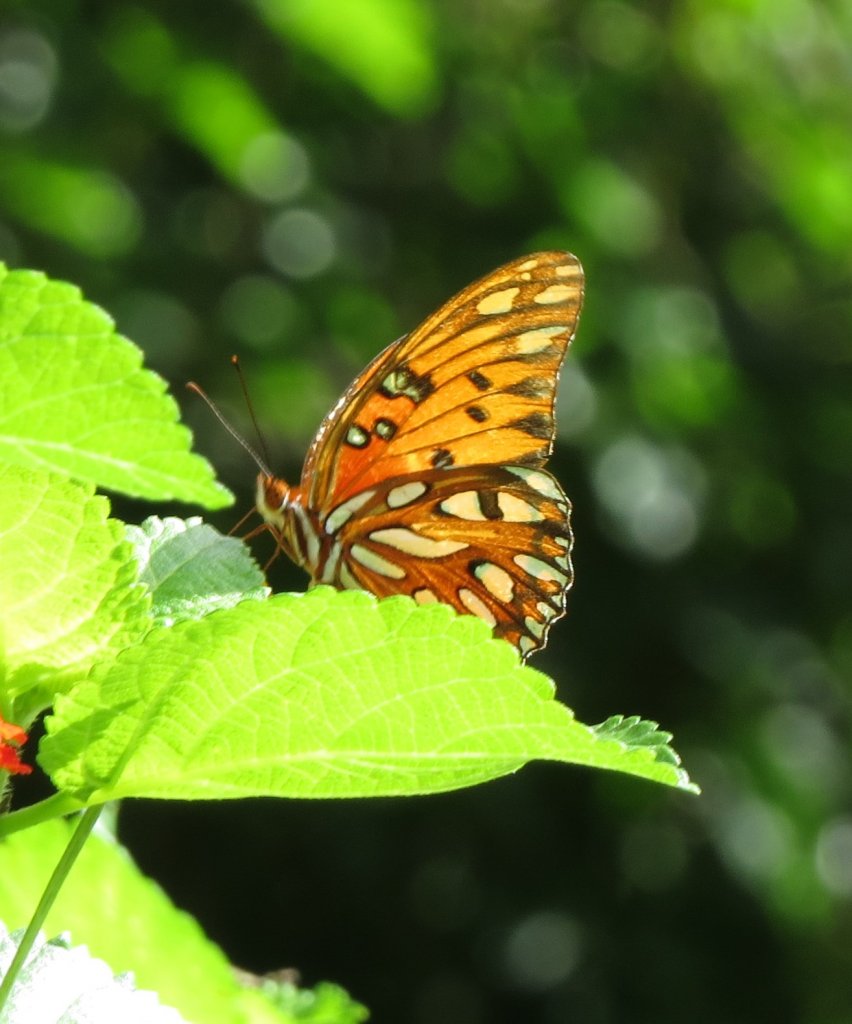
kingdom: Animalia
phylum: Arthropoda
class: Insecta
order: Lepidoptera
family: Nymphalidae
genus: Dione
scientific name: Dione vanillae
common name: Gulf Fritillary
